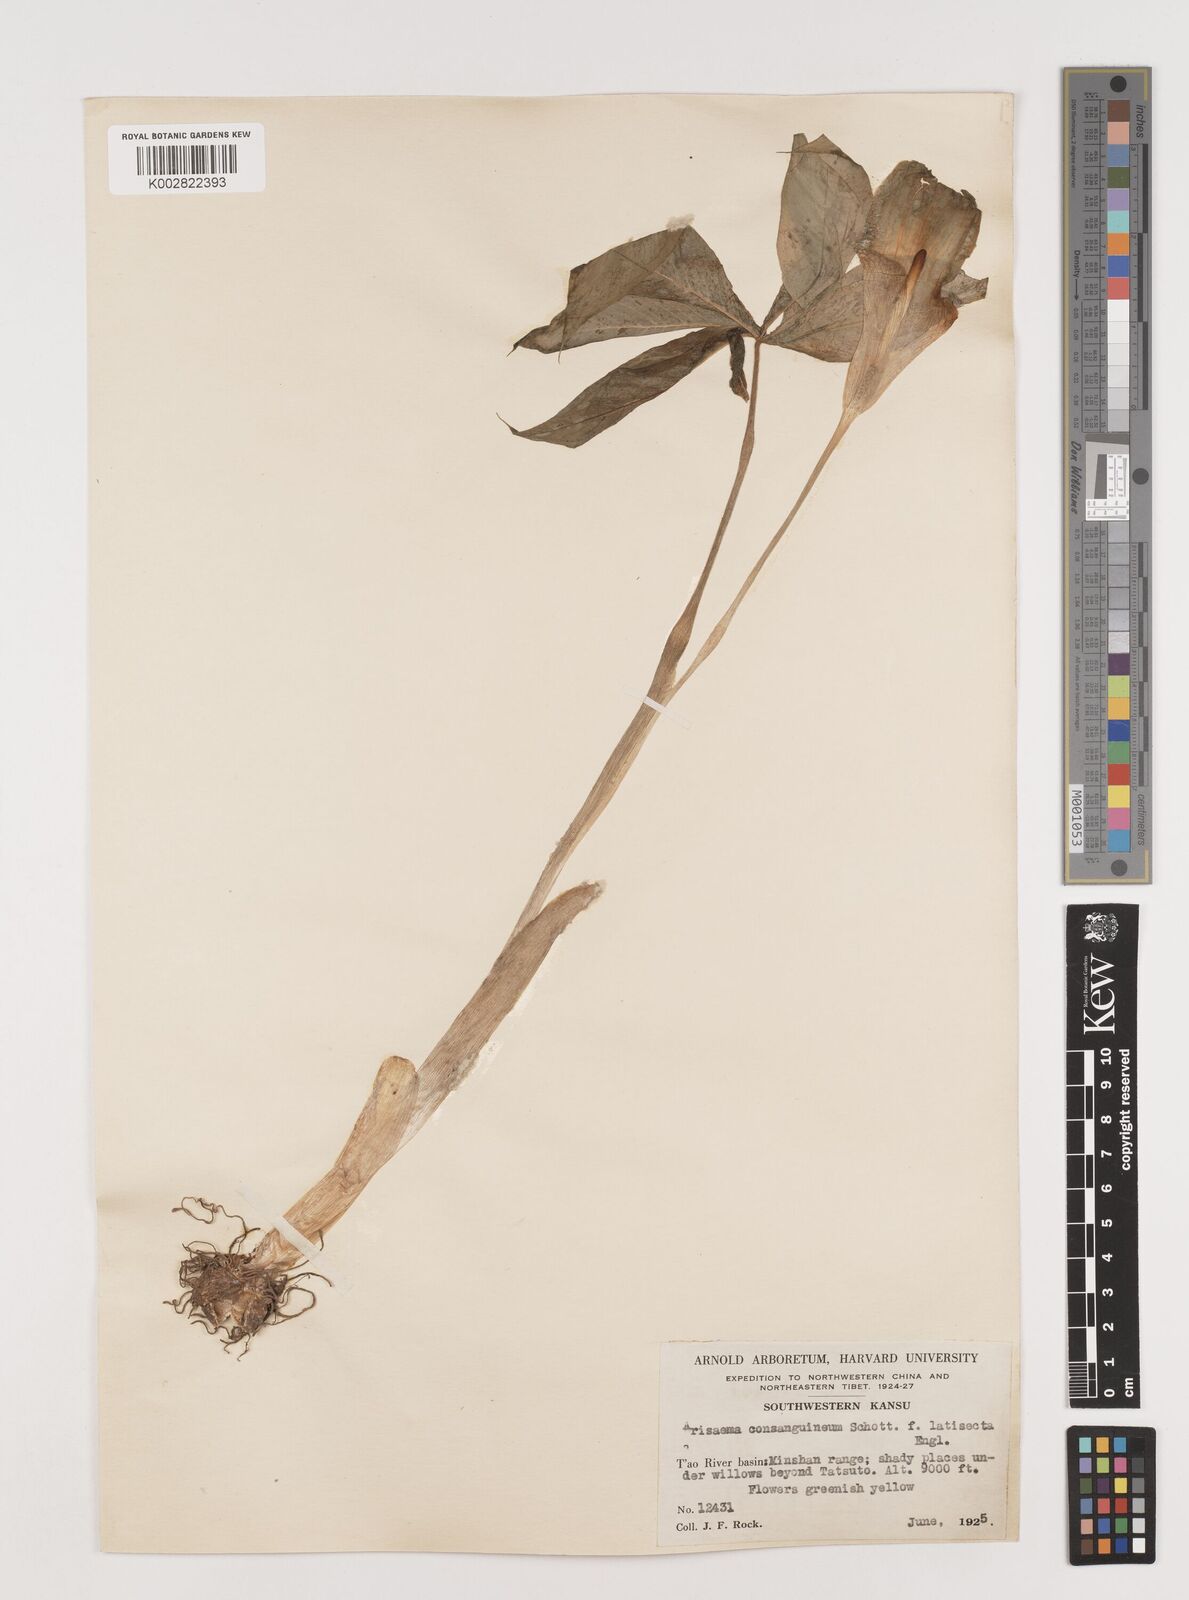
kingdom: Plantae
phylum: Tracheophyta
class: Liliopsida
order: Alismatales
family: Araceae
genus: Arisaema
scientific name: Arisaema erubescens
